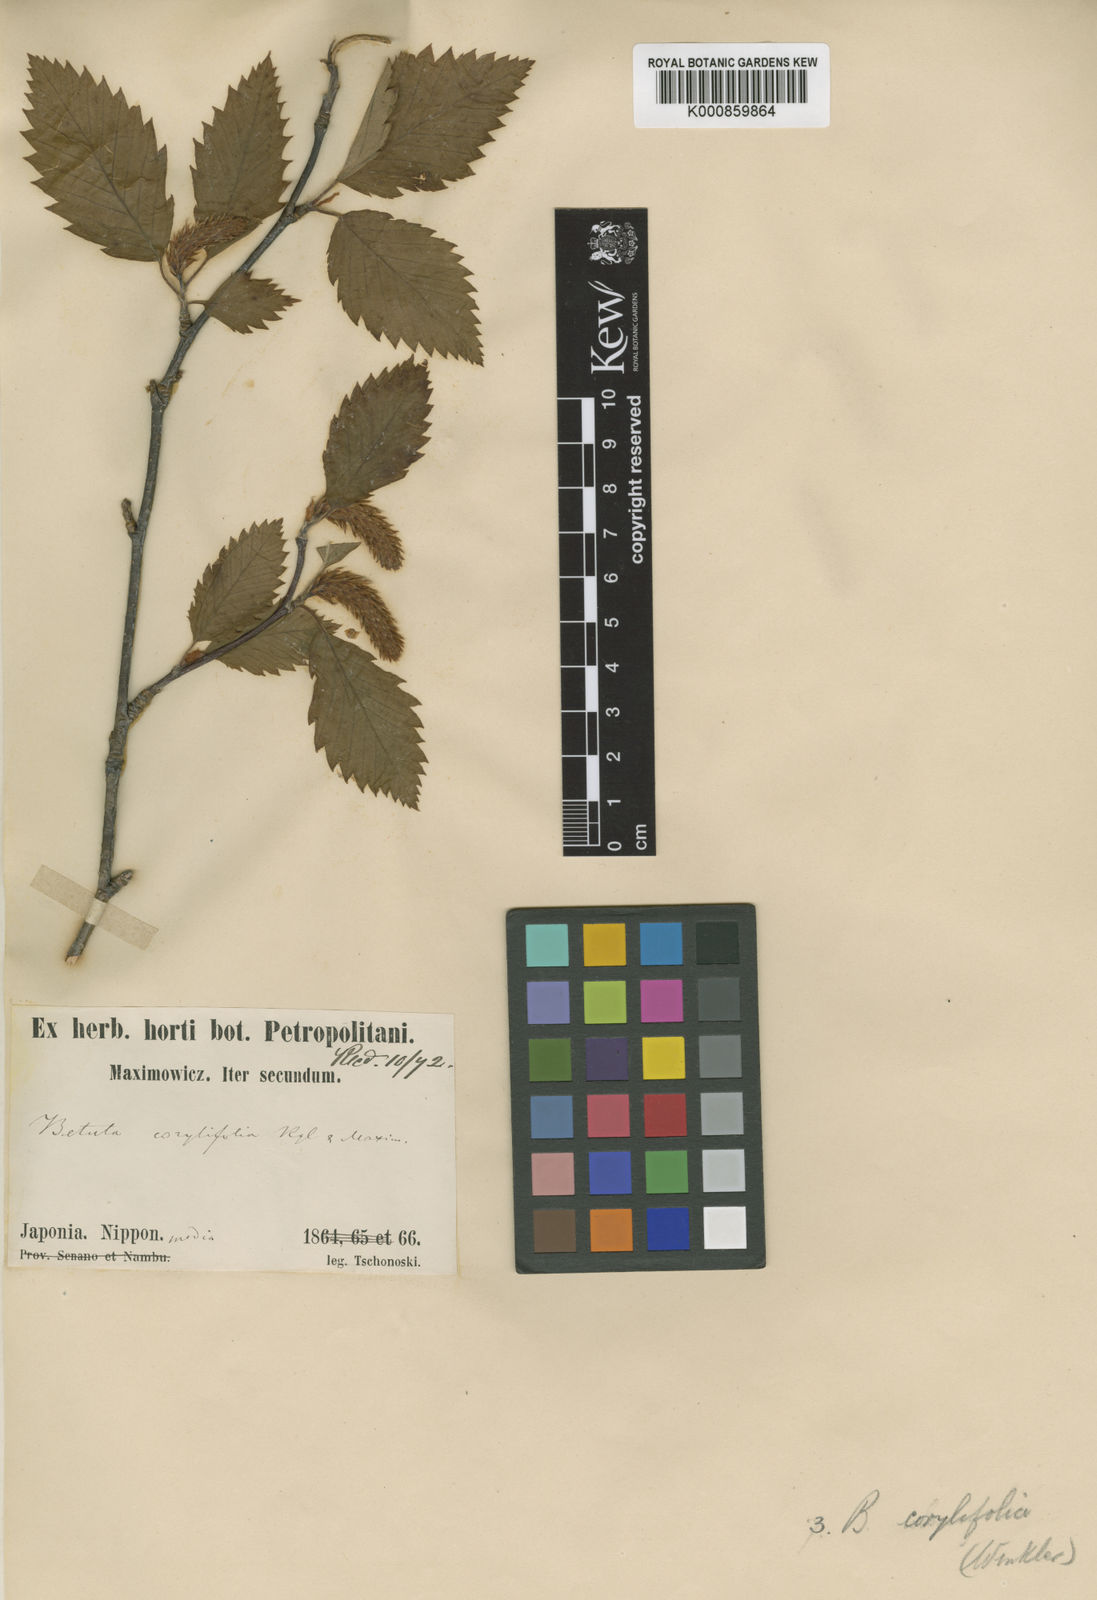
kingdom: Plantae
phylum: Tracheophyta
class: Magnoliopsida
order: Fagales
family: Betulaceae
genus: Betula
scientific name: Betula corylifolia
